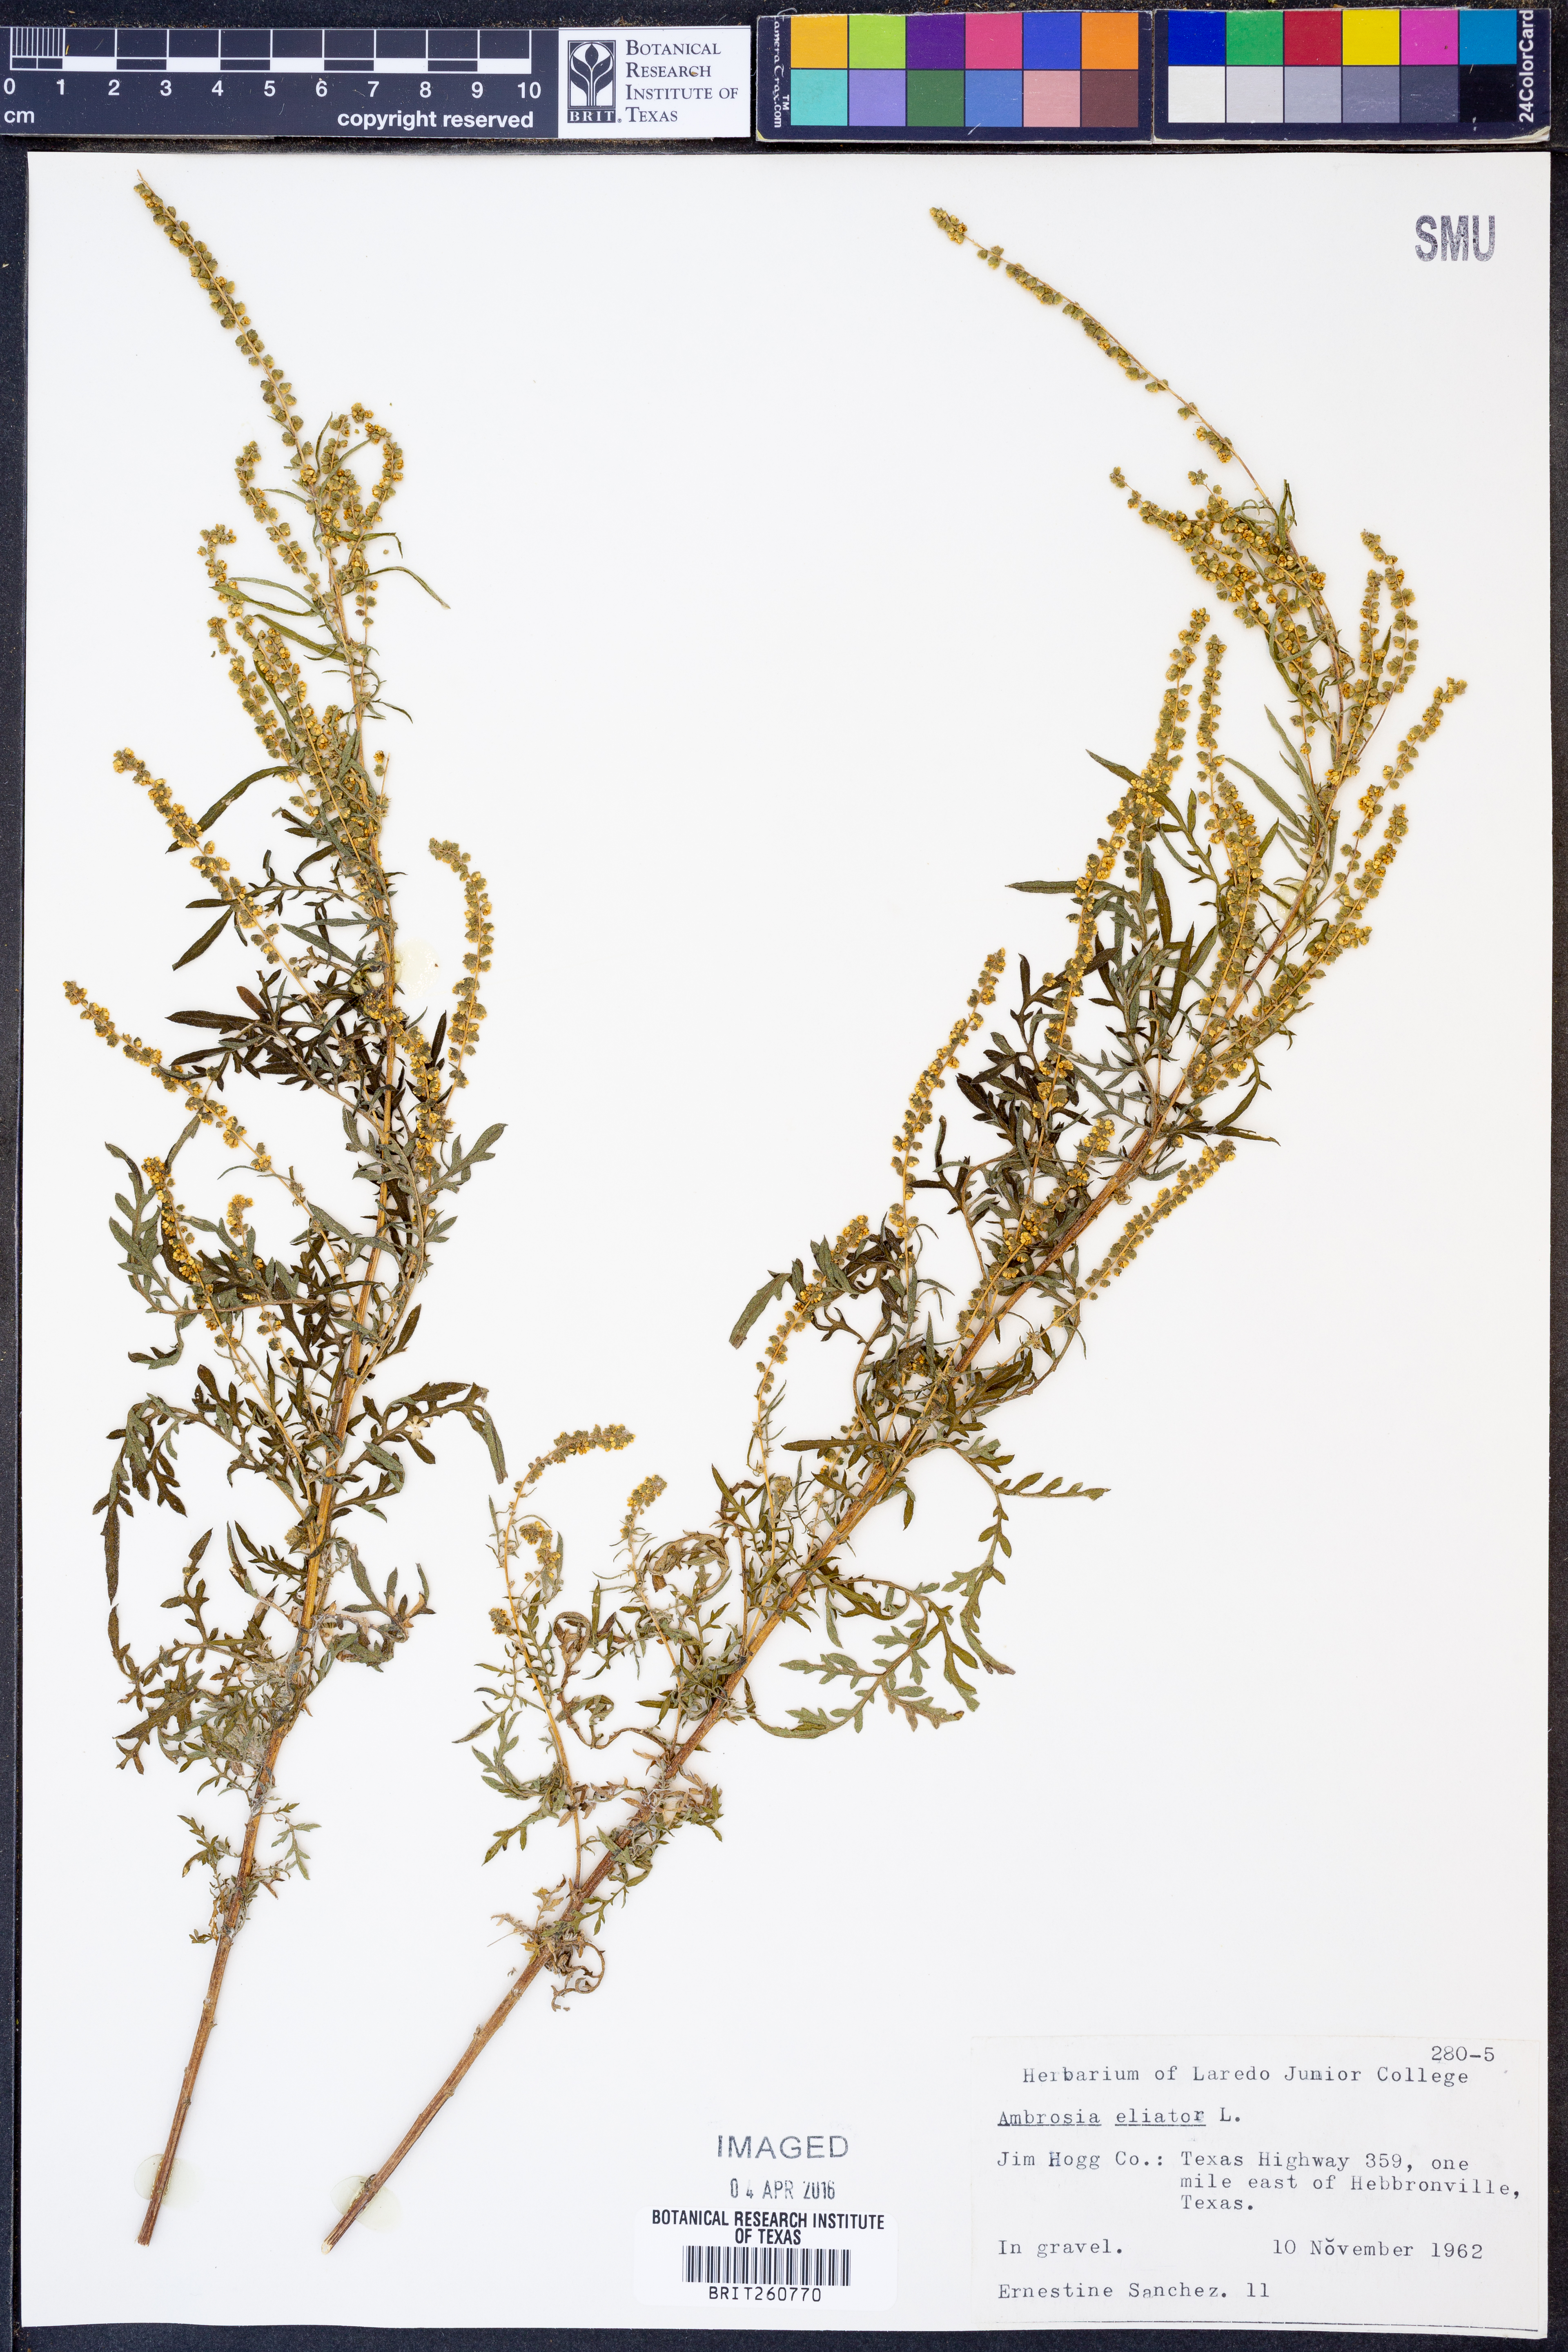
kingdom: Plantae
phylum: Tracheophyta
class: Magnoliopsida
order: Asterales
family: Asteraceae
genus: Ambrosia
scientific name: Ambrosia artemisiifolia
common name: Annual ragweed
